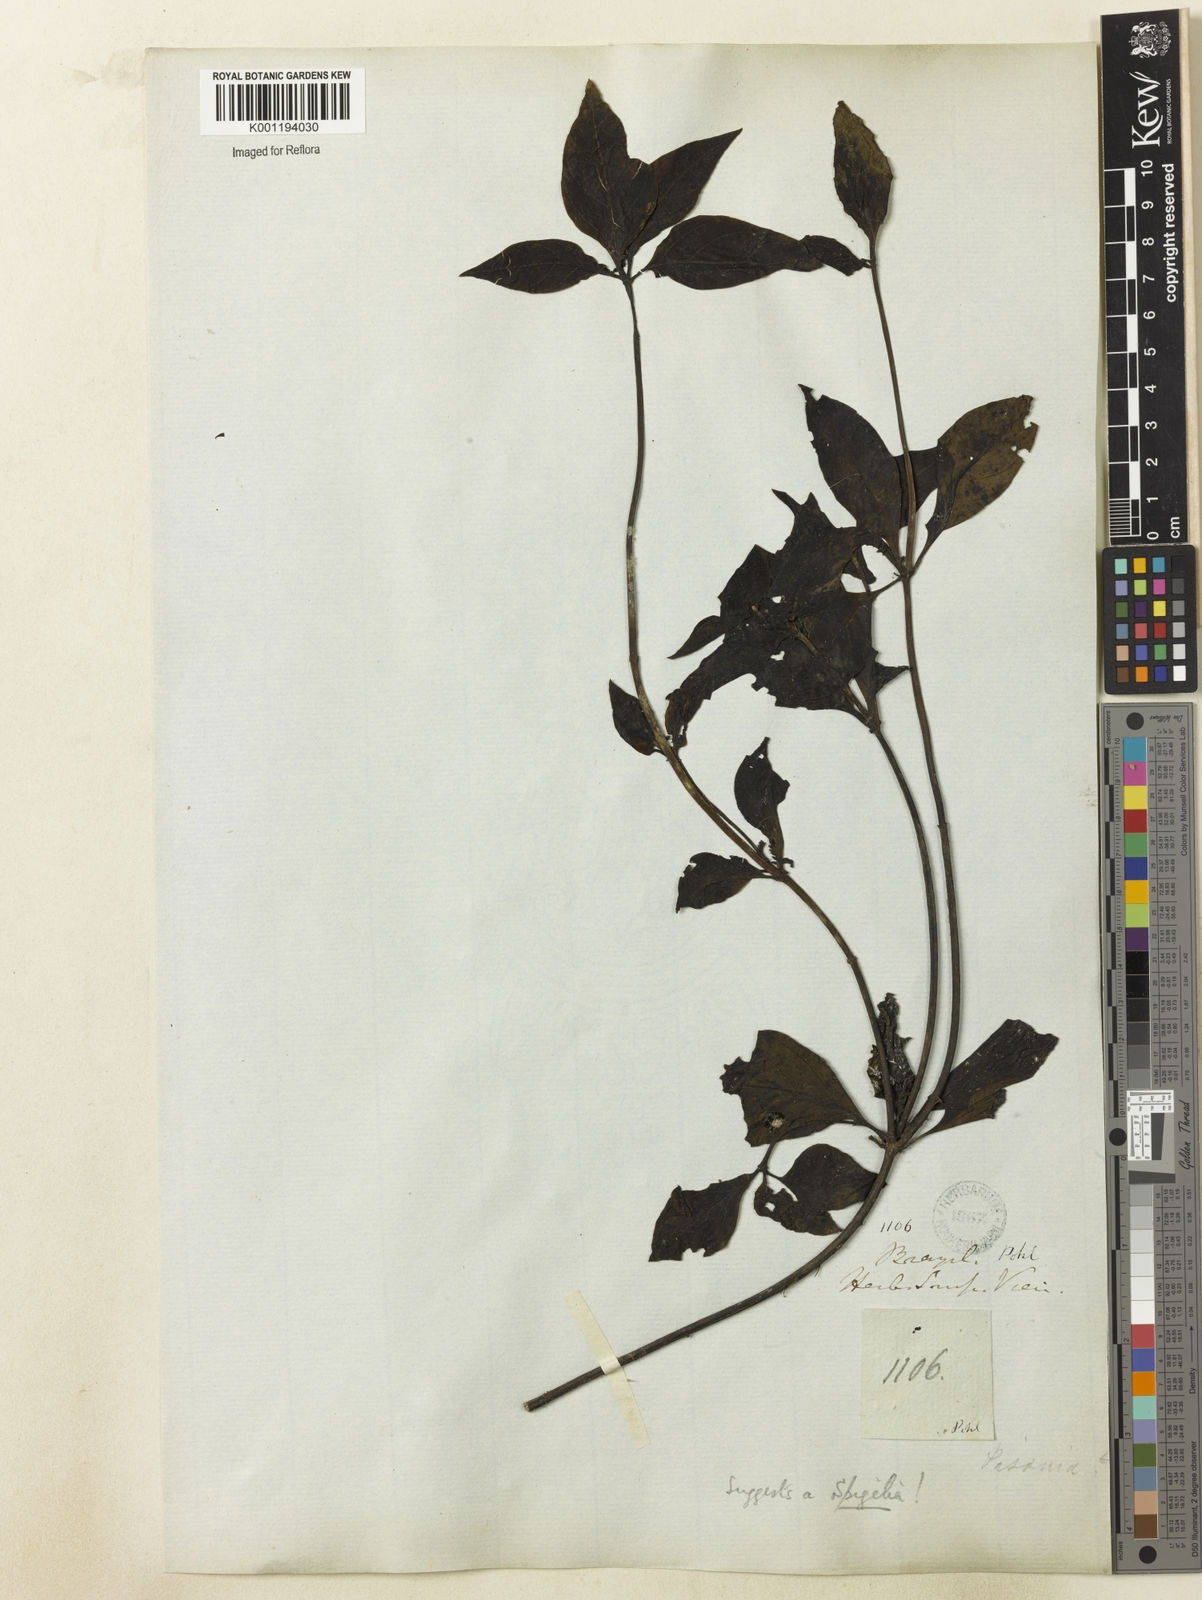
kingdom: Plantae
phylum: Tracheophyta
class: Magnoliopsida
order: Caryophyllales
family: Nyctaginaceae
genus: Guapira
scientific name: Guapira
